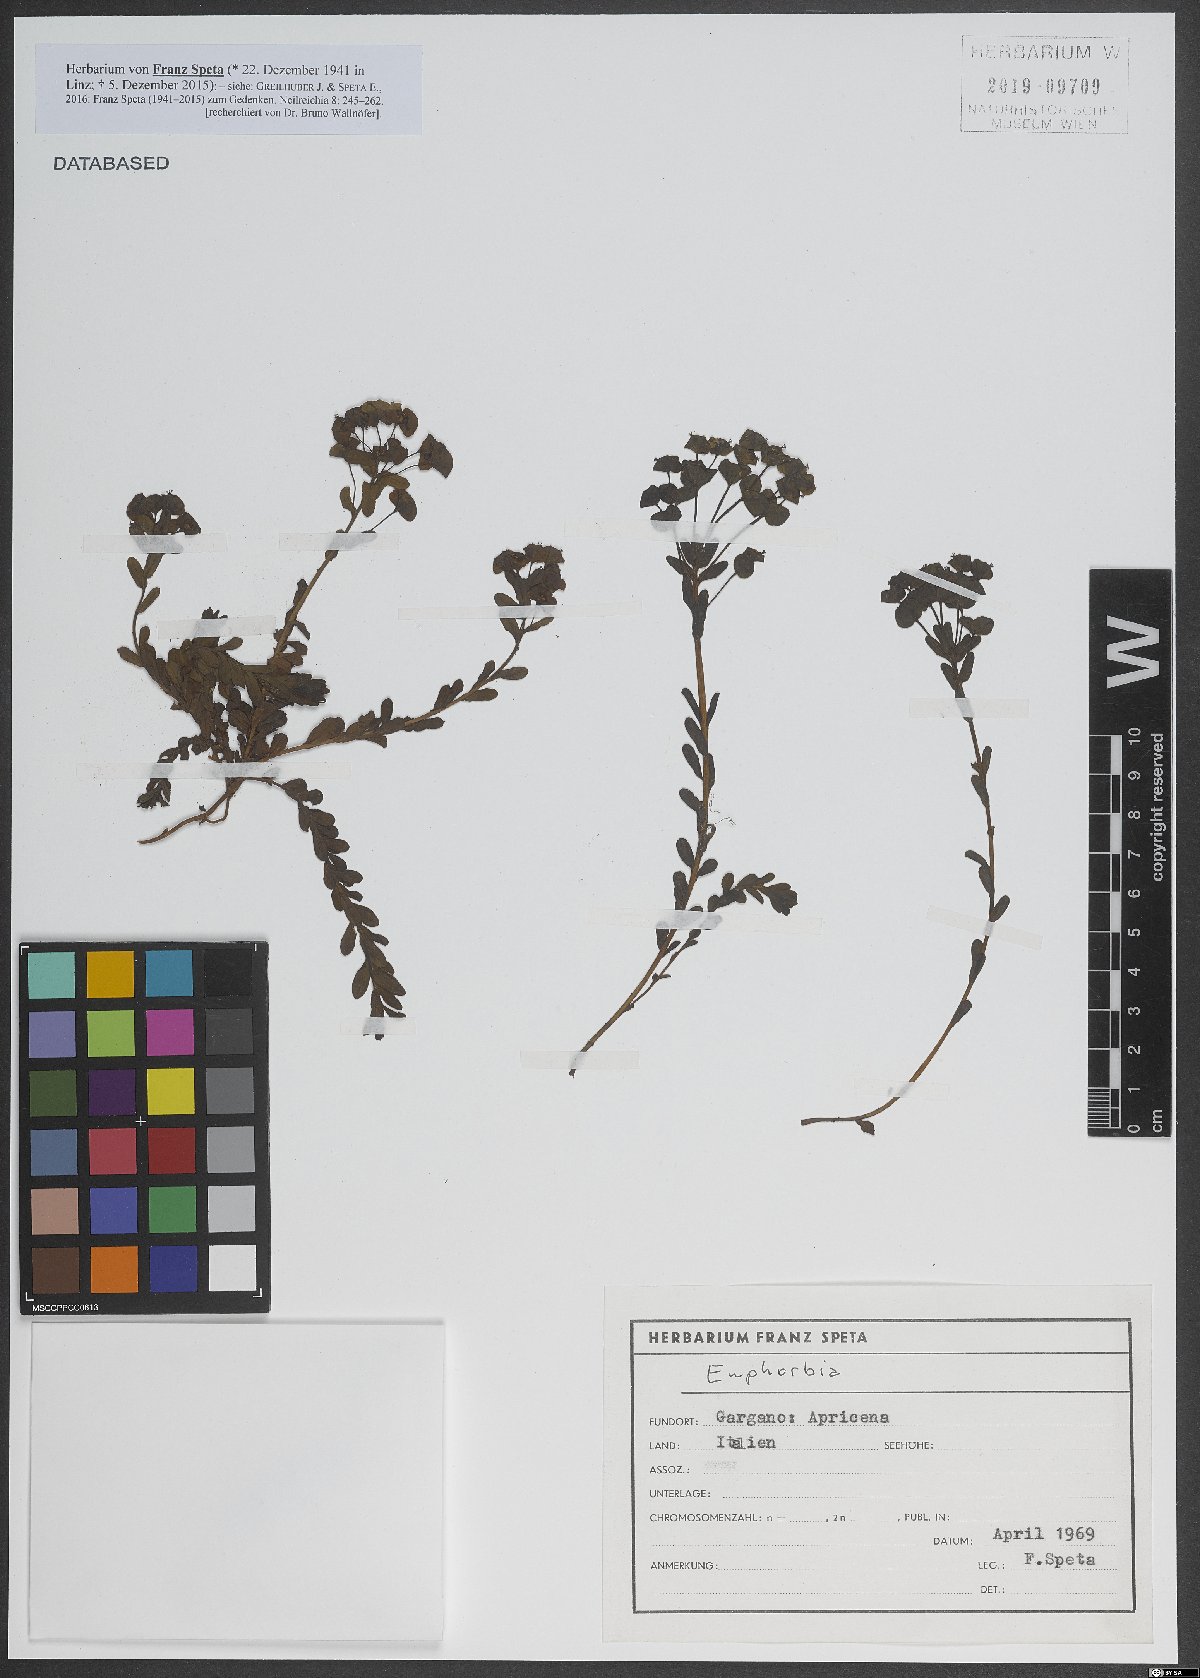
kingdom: Plantae
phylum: Tracheophyta
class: Magnoliopsida
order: Malpighiales
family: Euphorbiaceae
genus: Euphorbia
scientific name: Euphorbia
